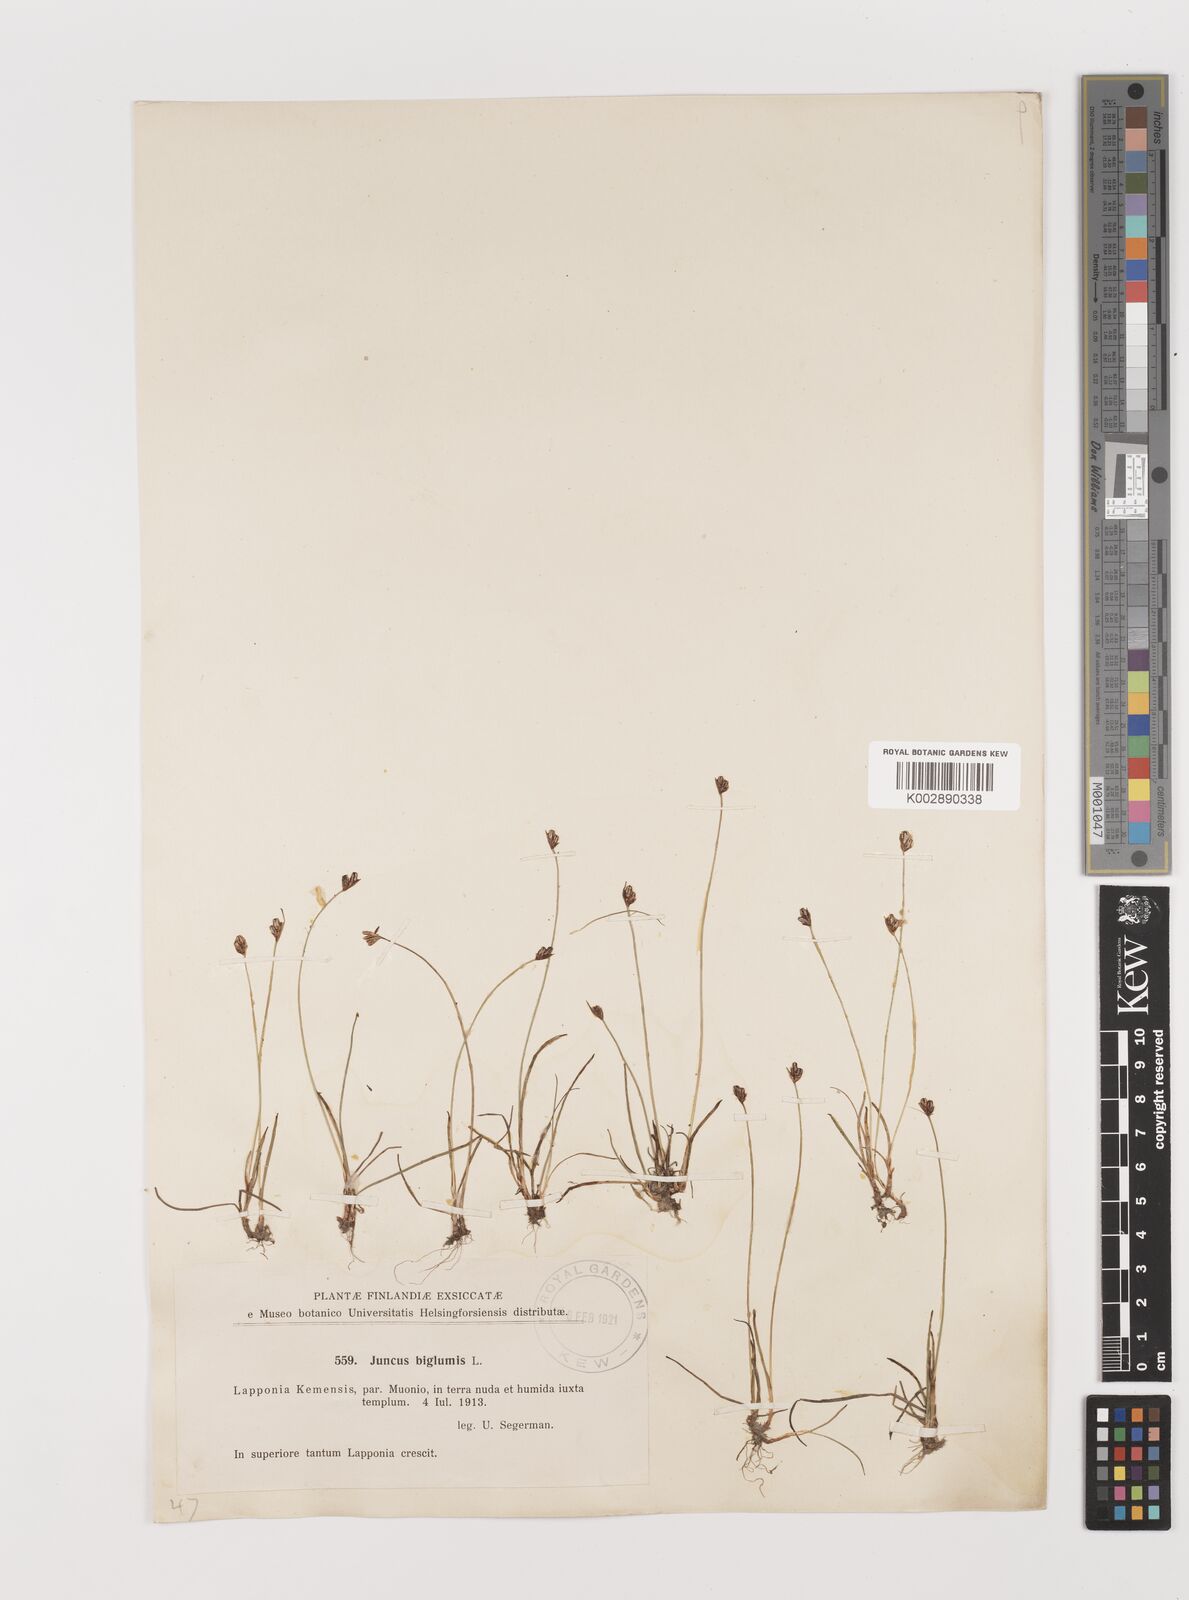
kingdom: Plantae
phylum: Tracheophyta
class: Liliopsida
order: Poales
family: Juncaceae
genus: Juncus
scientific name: Juncus biglumis
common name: Two-flowered rush
